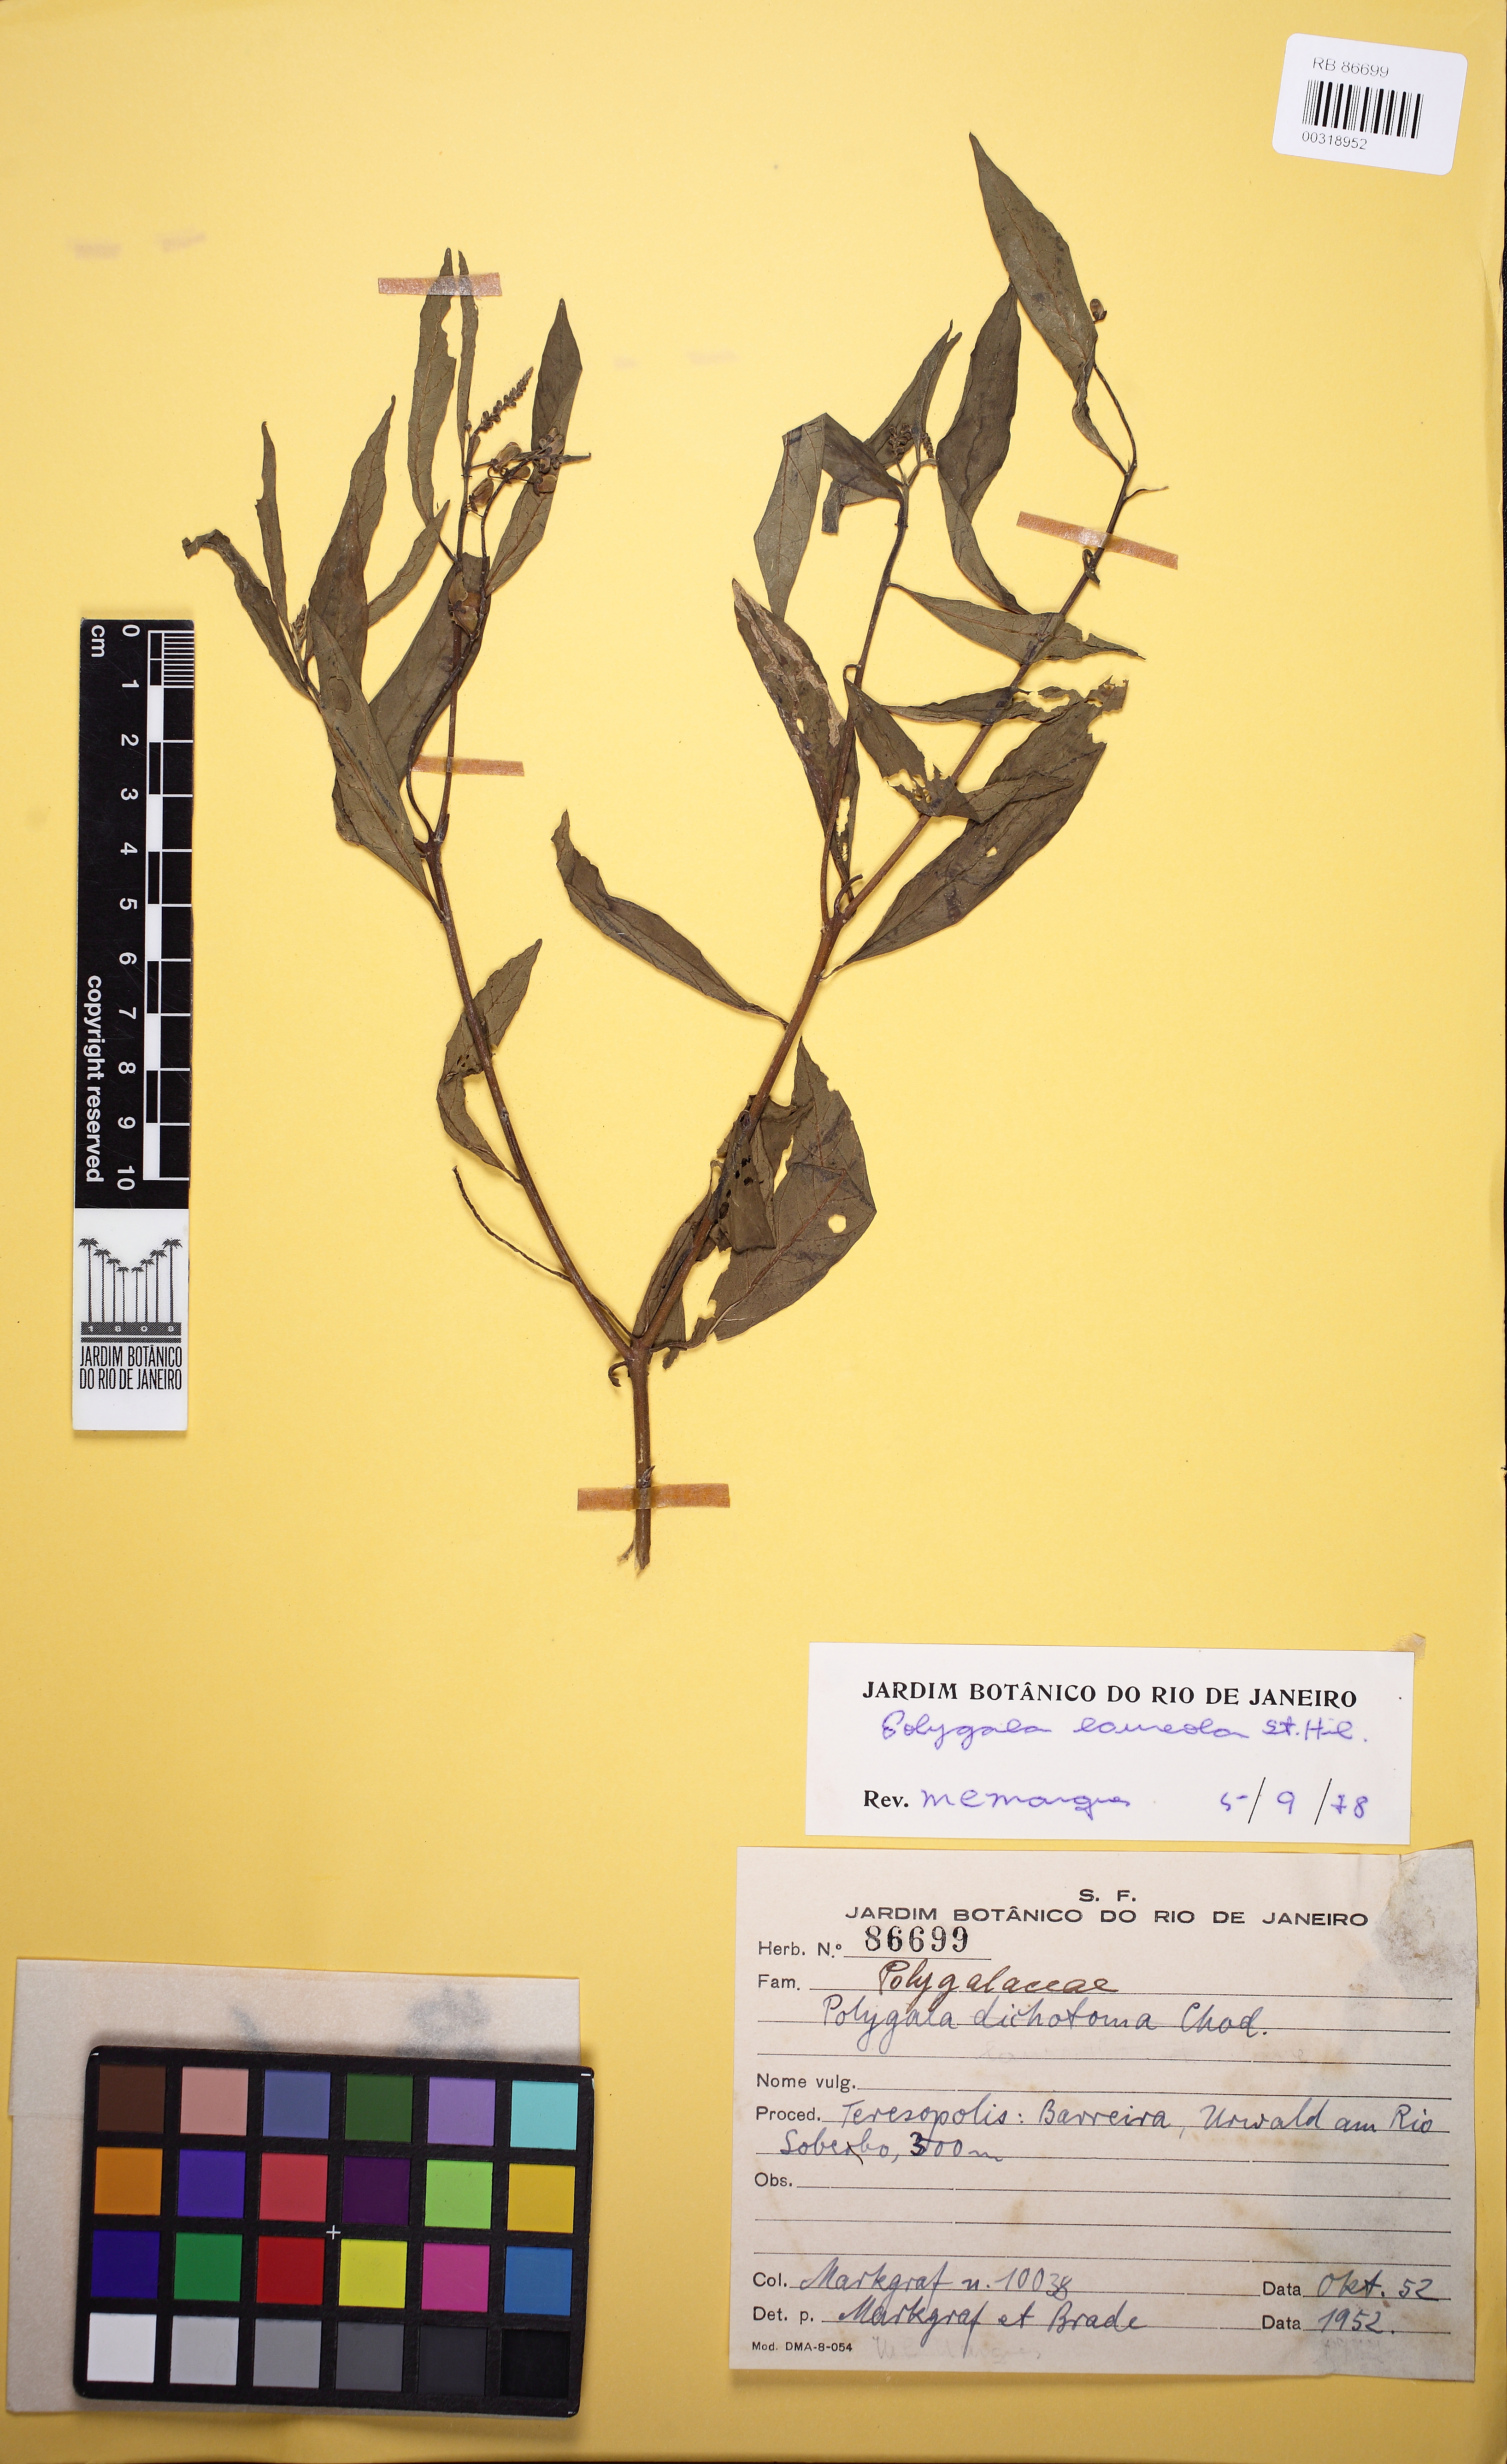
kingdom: Plantae
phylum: Tracheophyta
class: Magnoliopsida
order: Fabales
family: Polygalaceae
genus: Caamembeca
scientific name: Caamembeca salicifolia
